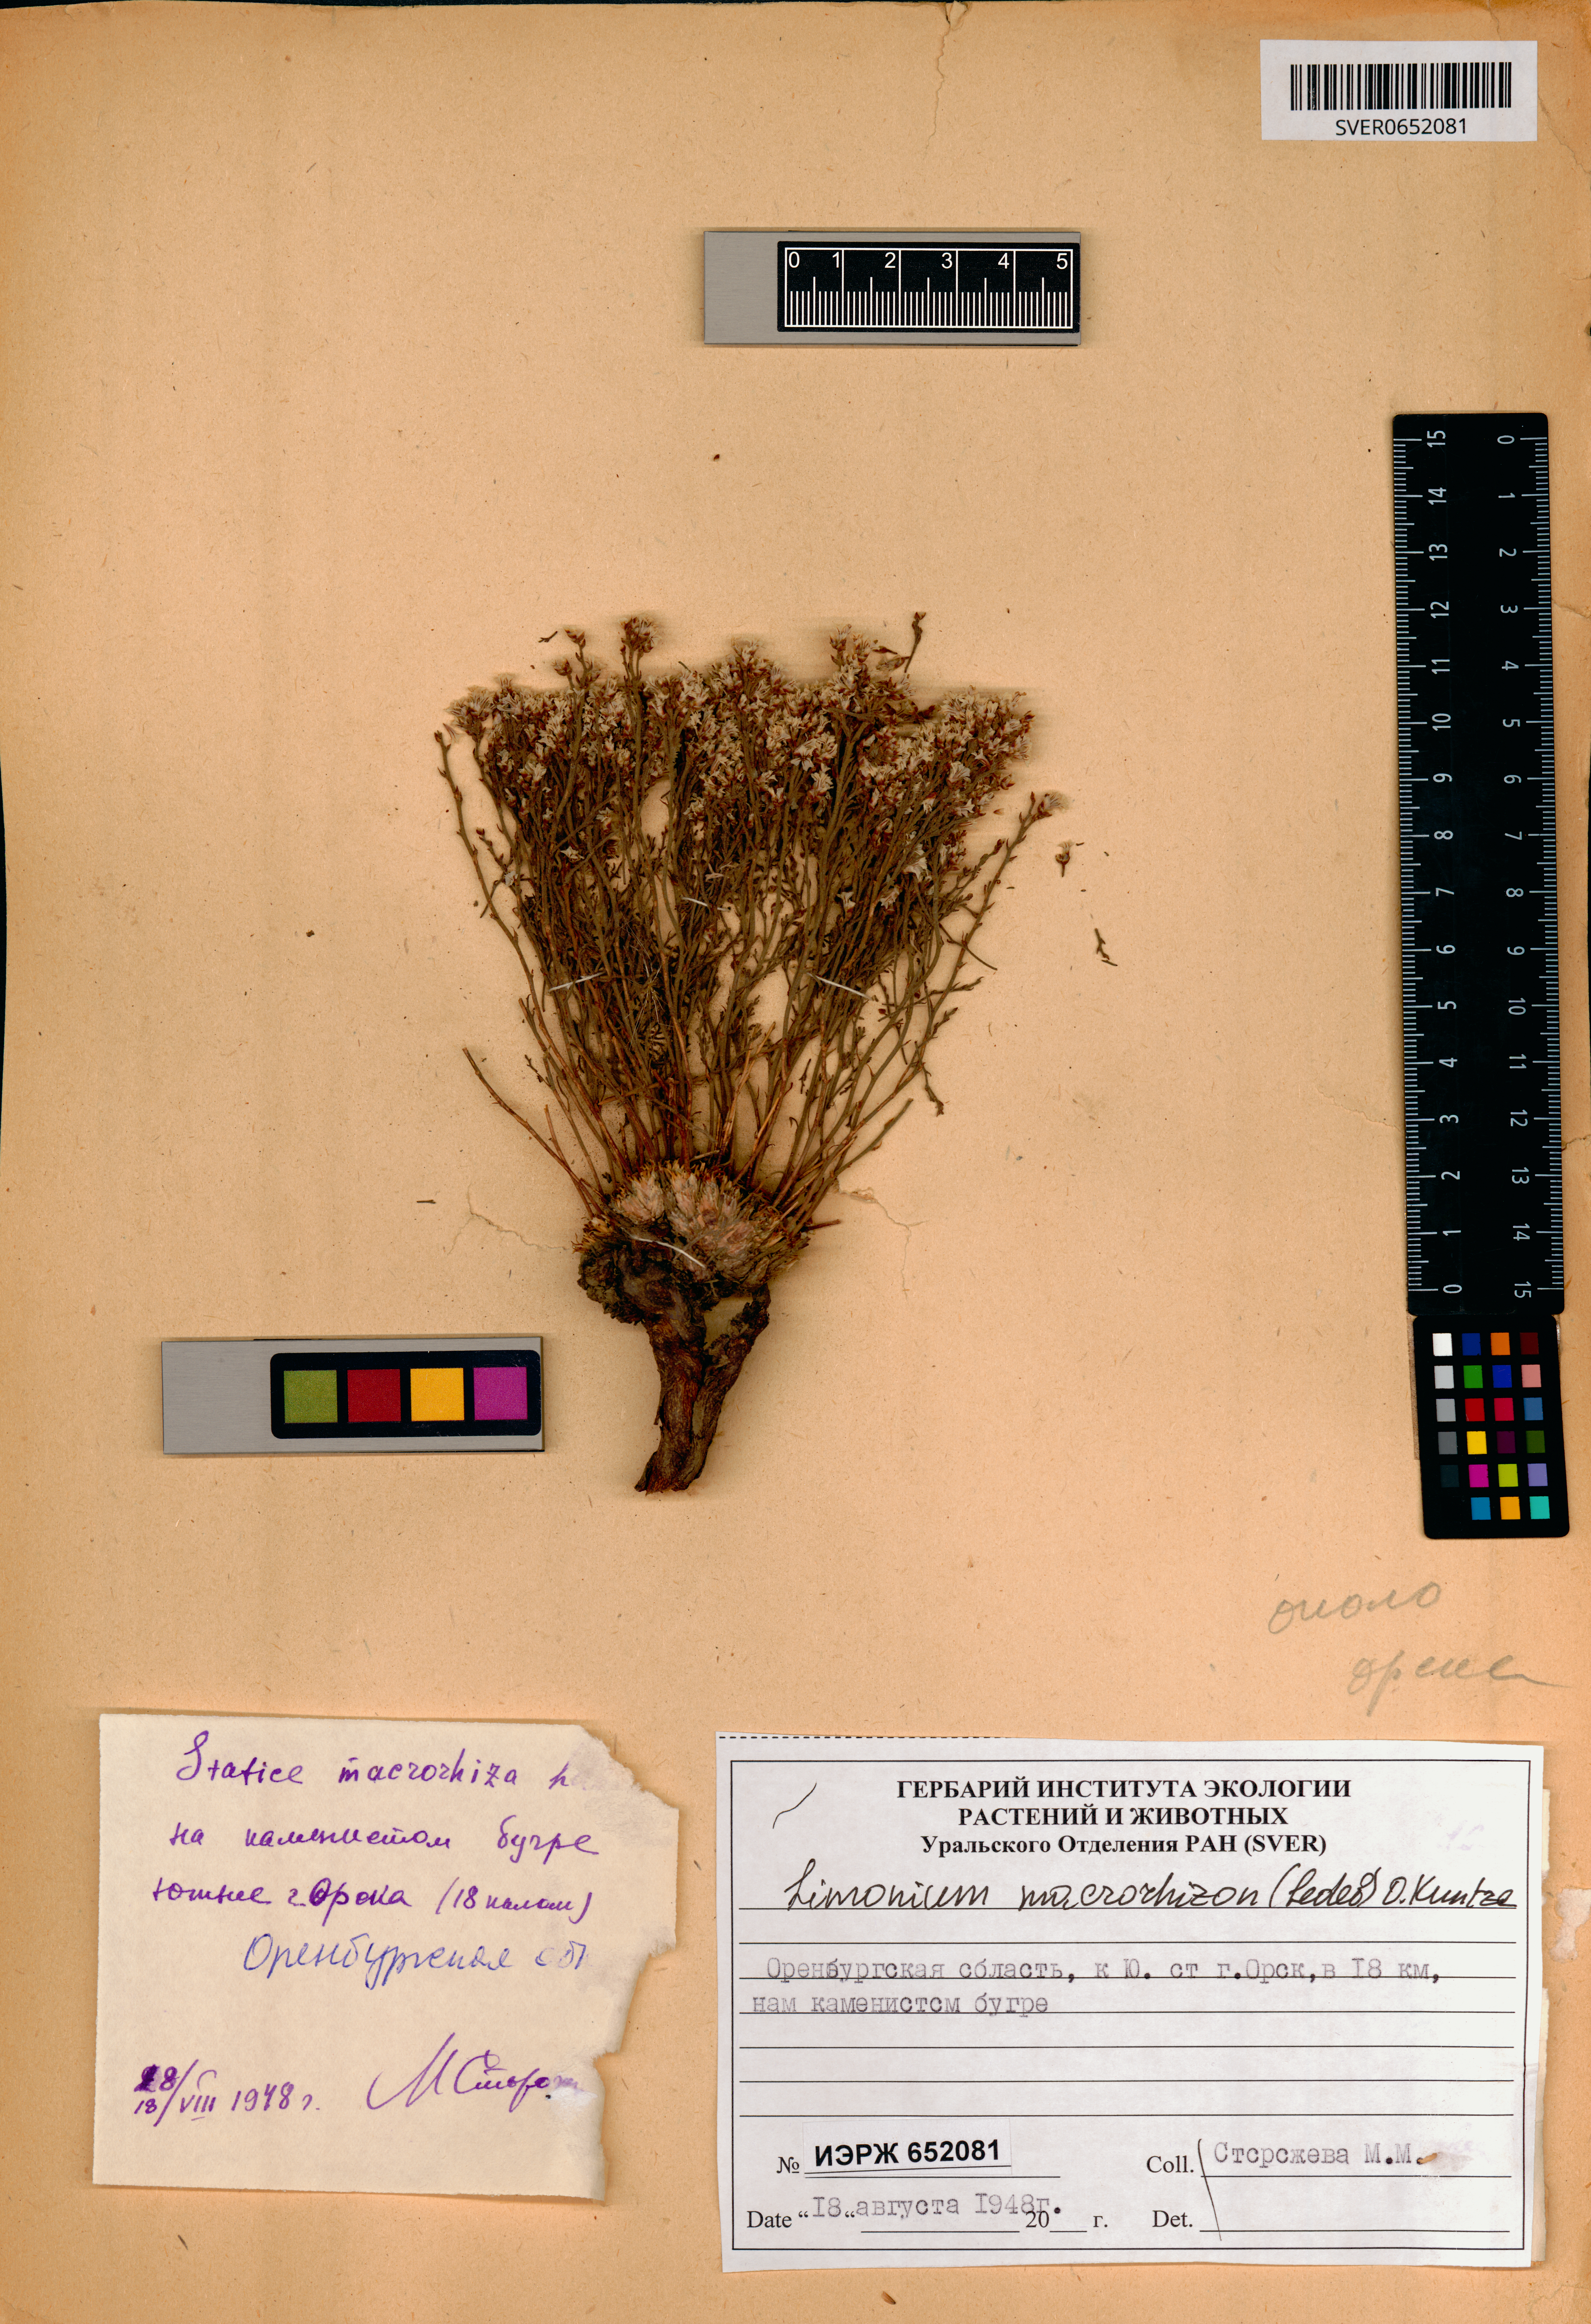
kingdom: Plantae
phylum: Tracheophyta
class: Magnoliopsida
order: Caryophyllales
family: Plumbaginaceae
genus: Limonium
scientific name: Limonium macrorhizum
